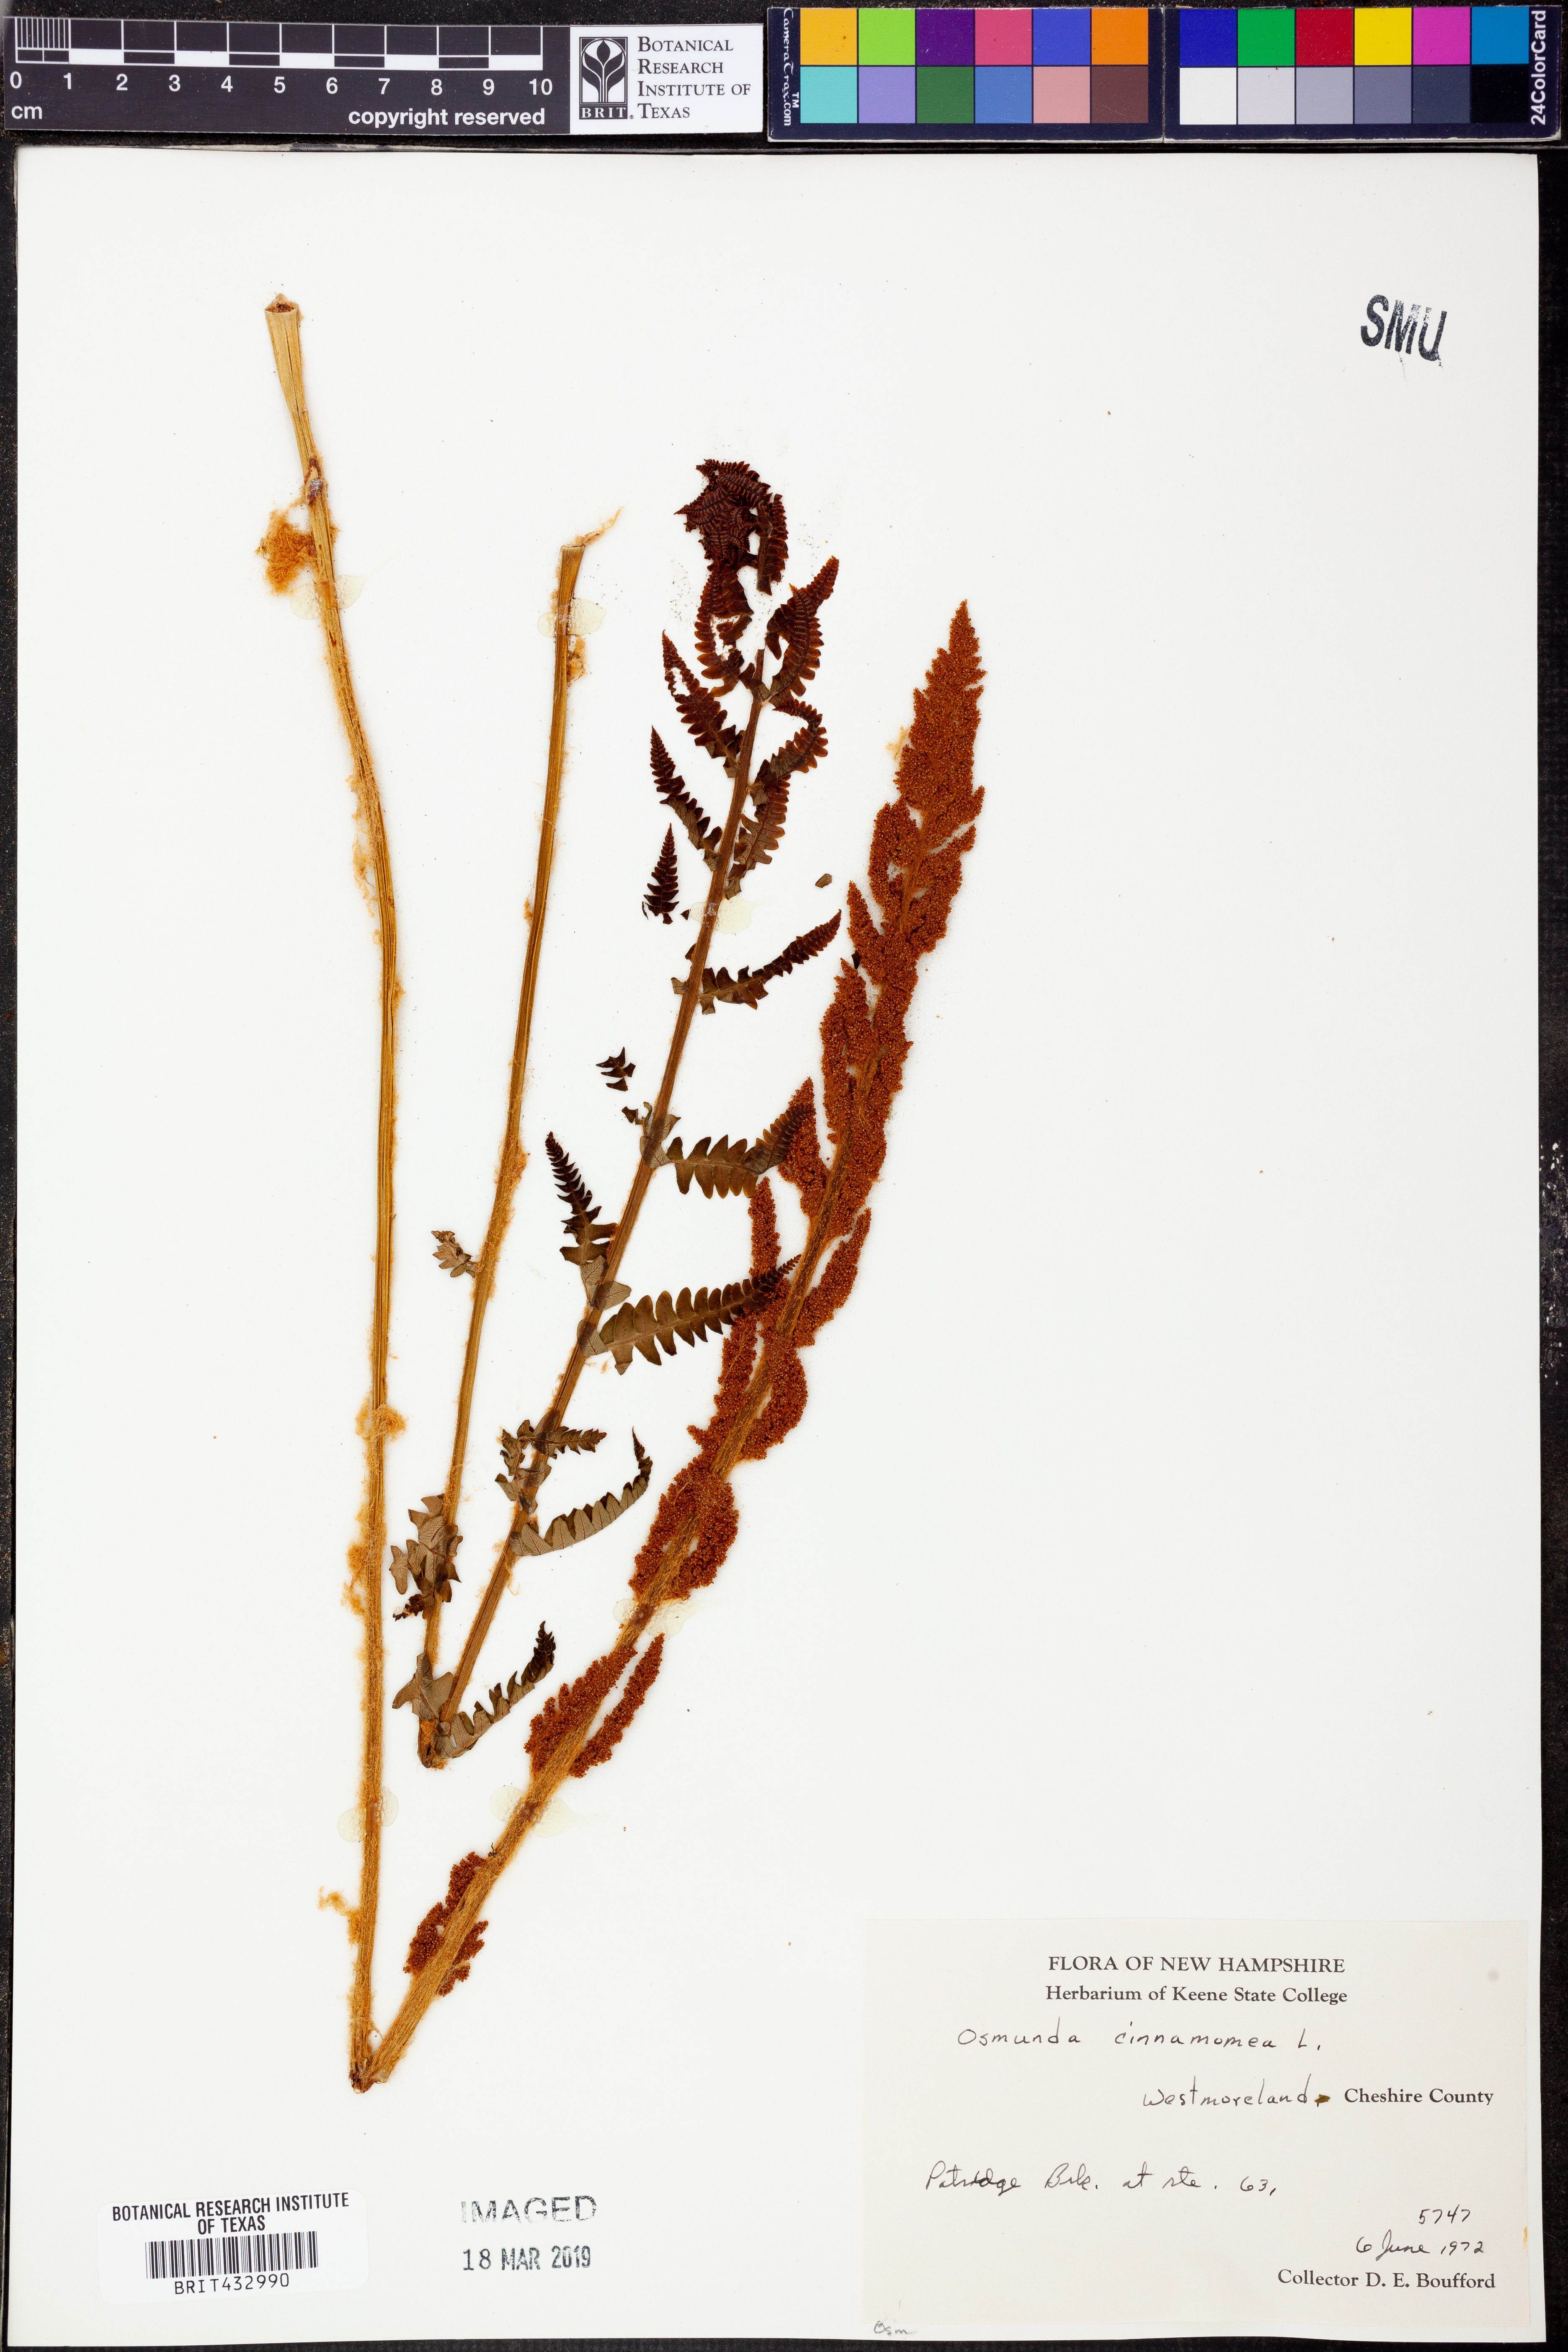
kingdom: Plantae
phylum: Tracheophyta
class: Polypodiopsida
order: Osmundales
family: Osmundaceae
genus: Osmundastrum
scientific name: Osmundastrum cinnamomeum
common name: Cinnamon fern
